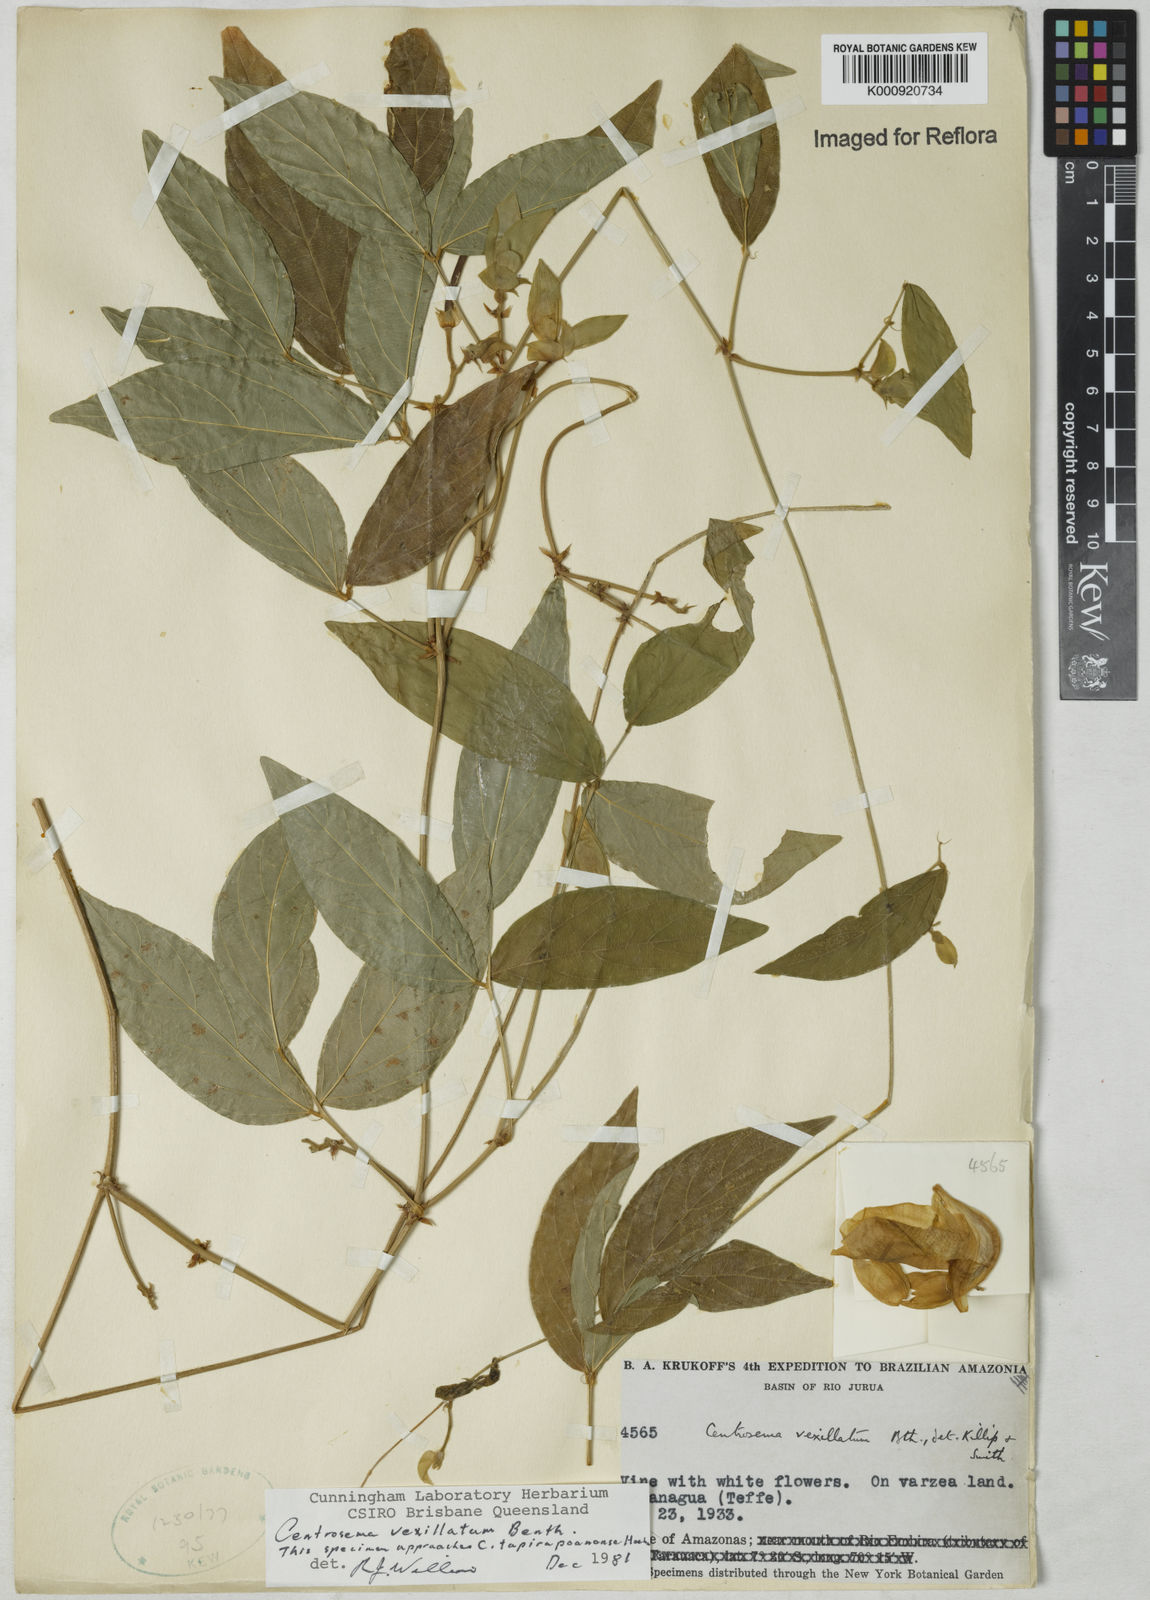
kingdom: Plantae
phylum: Tracheophyta
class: Magnoliopsida
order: Fabales
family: Fabaceae
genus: Centrosema
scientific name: Centrosema vexillatum
